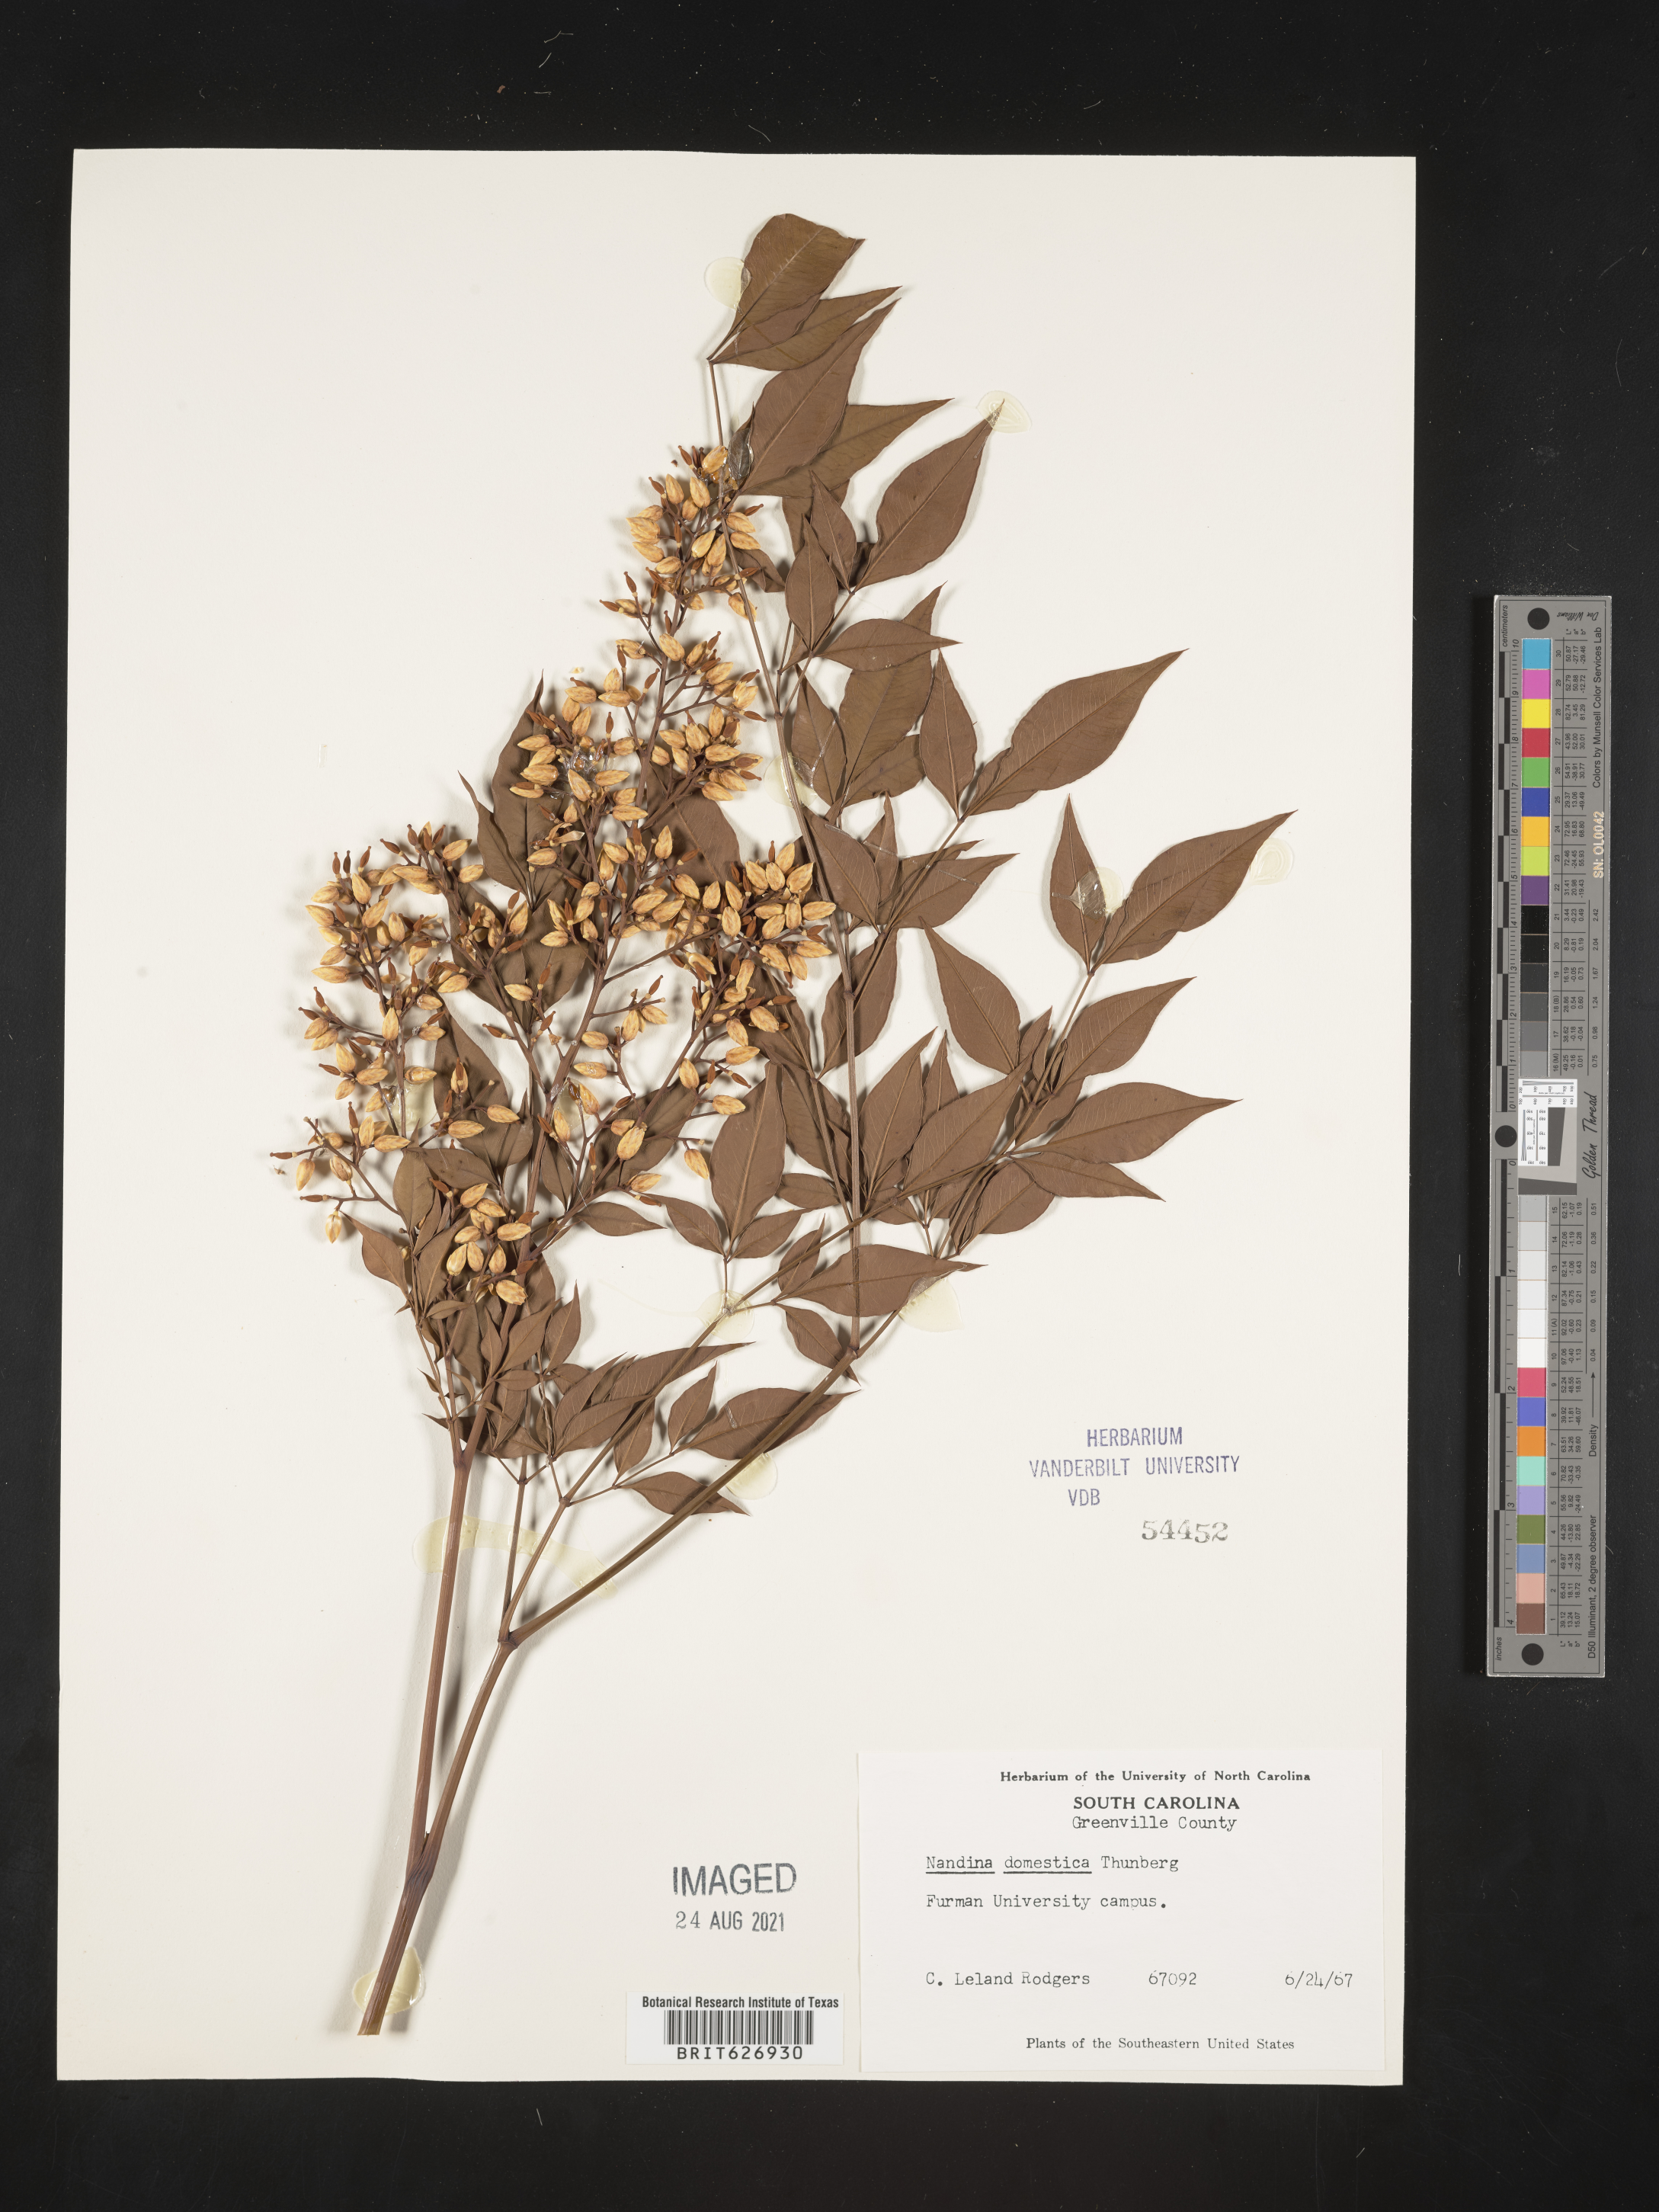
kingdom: Plantae
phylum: Tracheophyta
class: Magnoliopsida
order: Ranunculales
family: Berberidaceae
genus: Nandina
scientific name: Nandina domestica
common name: Sacred bamboo
